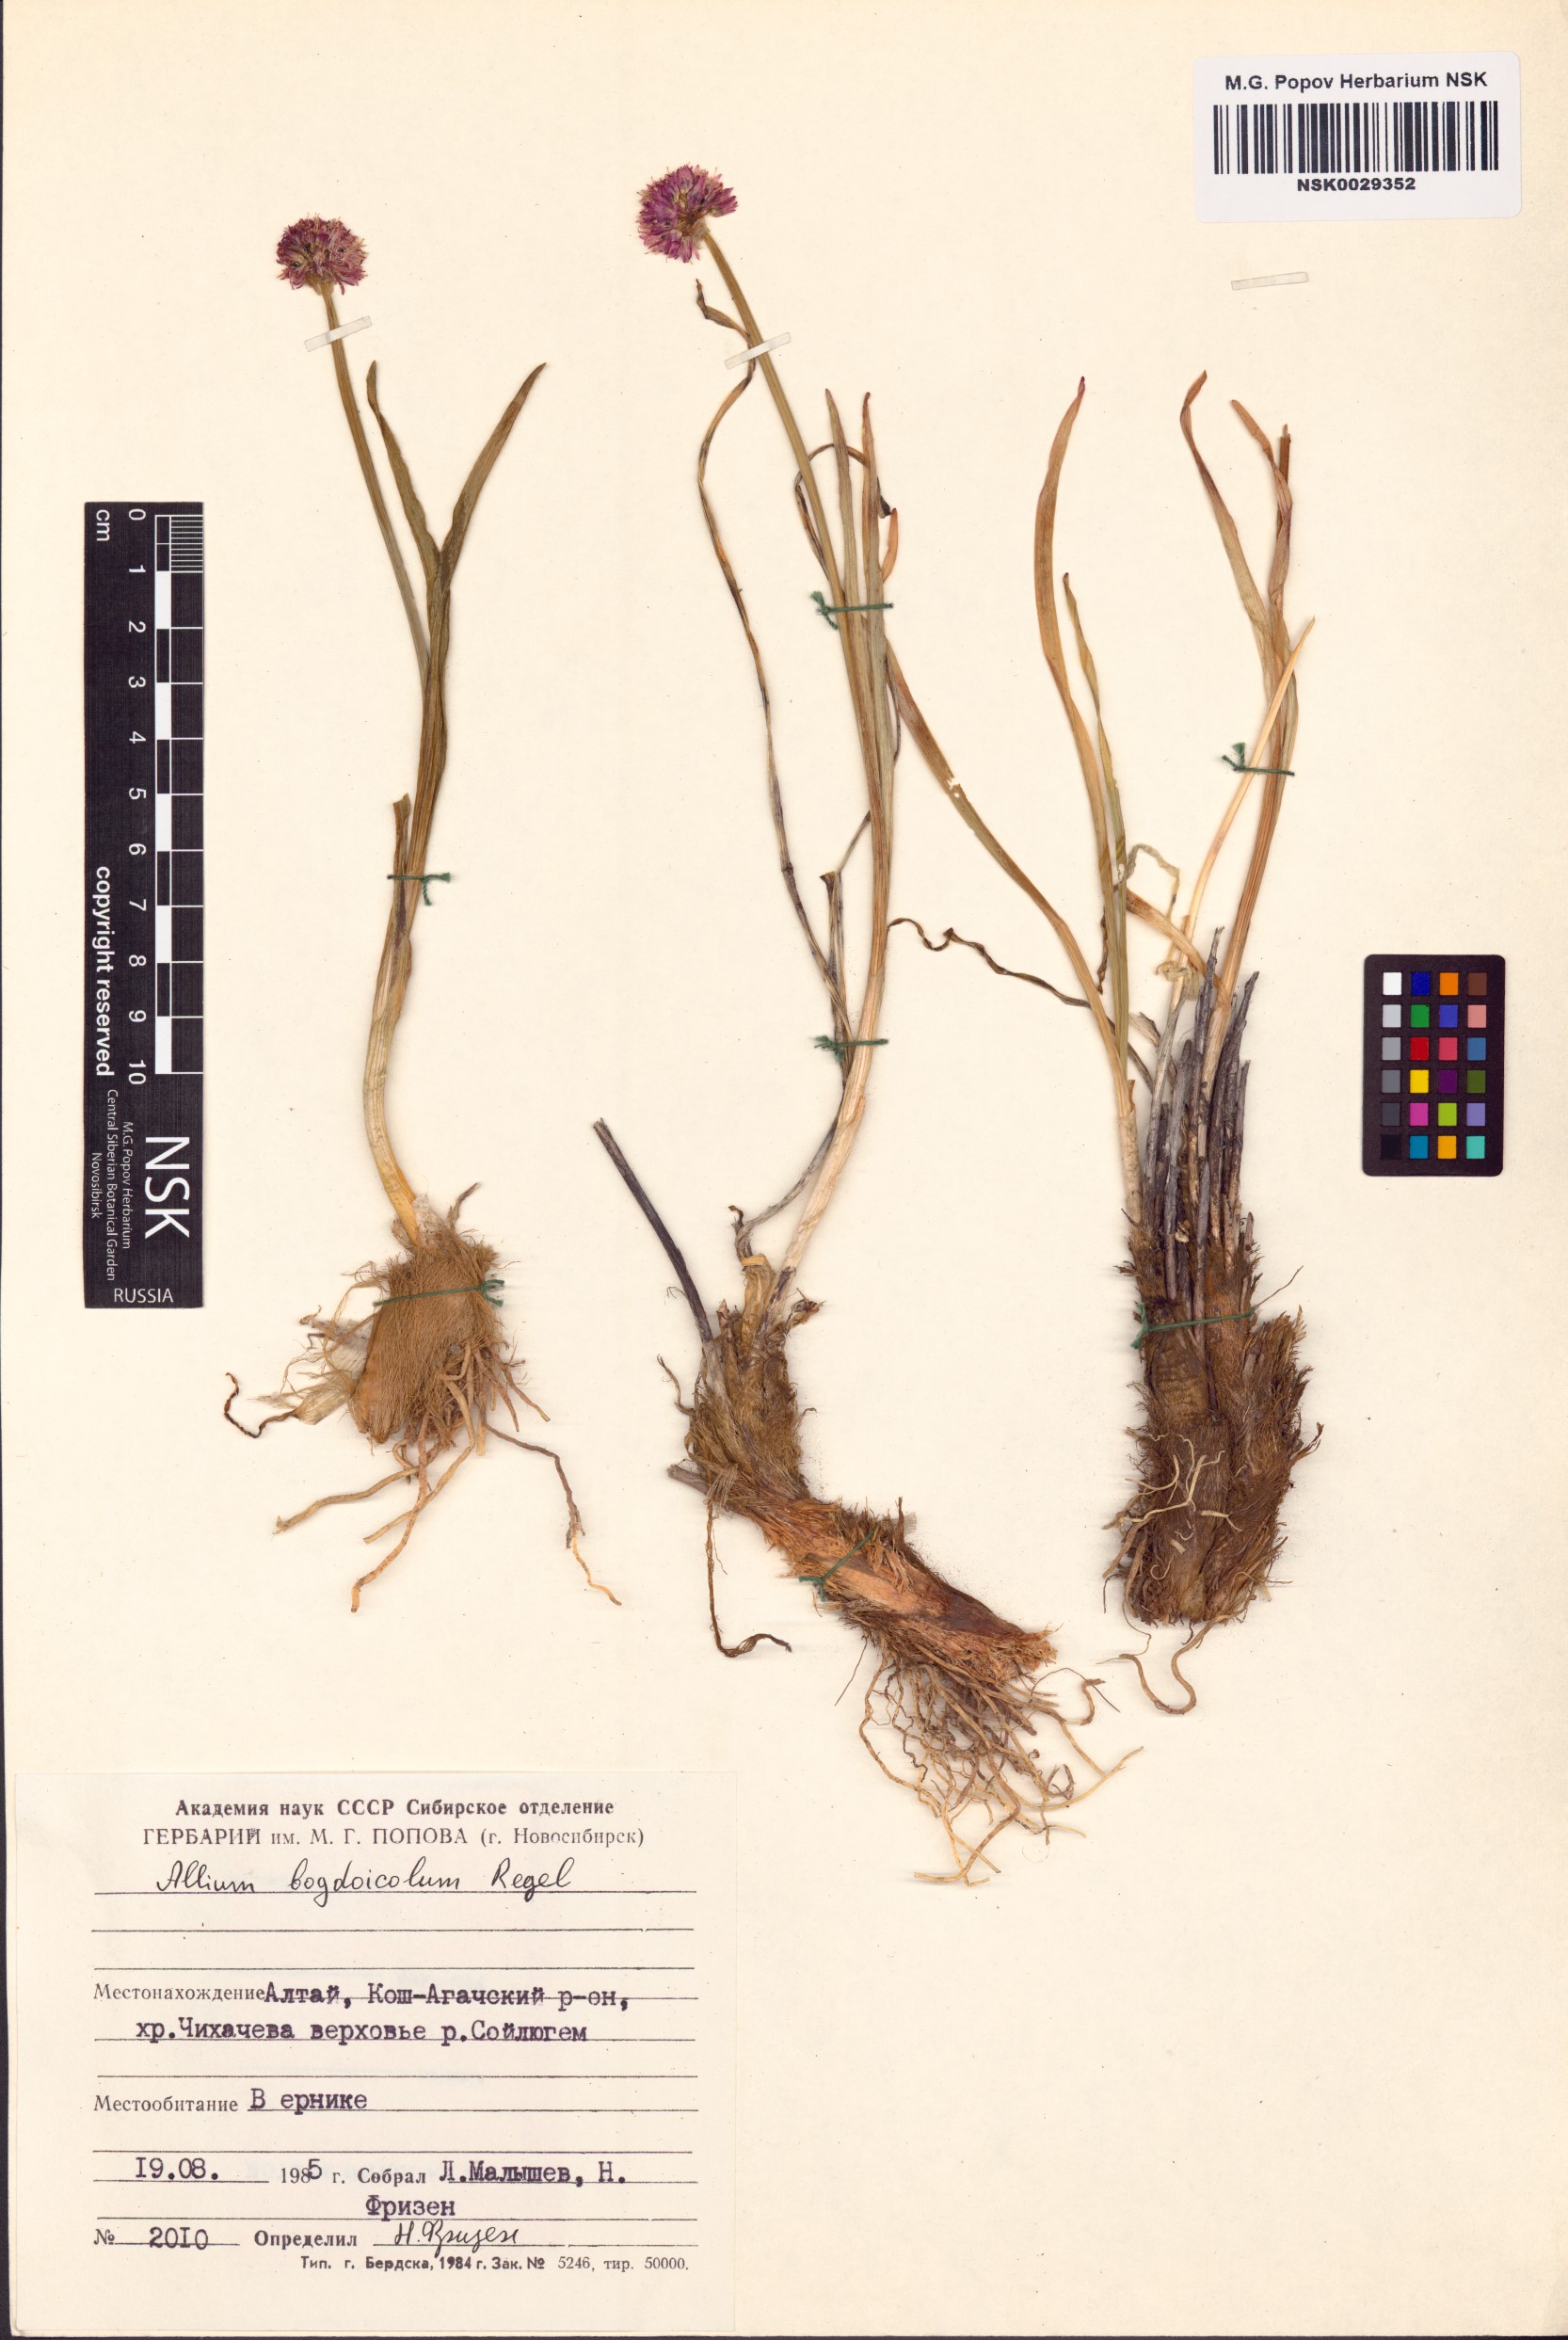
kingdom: Plantae
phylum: Tracheophyta
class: Liliopsida
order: Asparagales
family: Amaryllidaceae
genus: Allium
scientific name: Allium schrenkii
